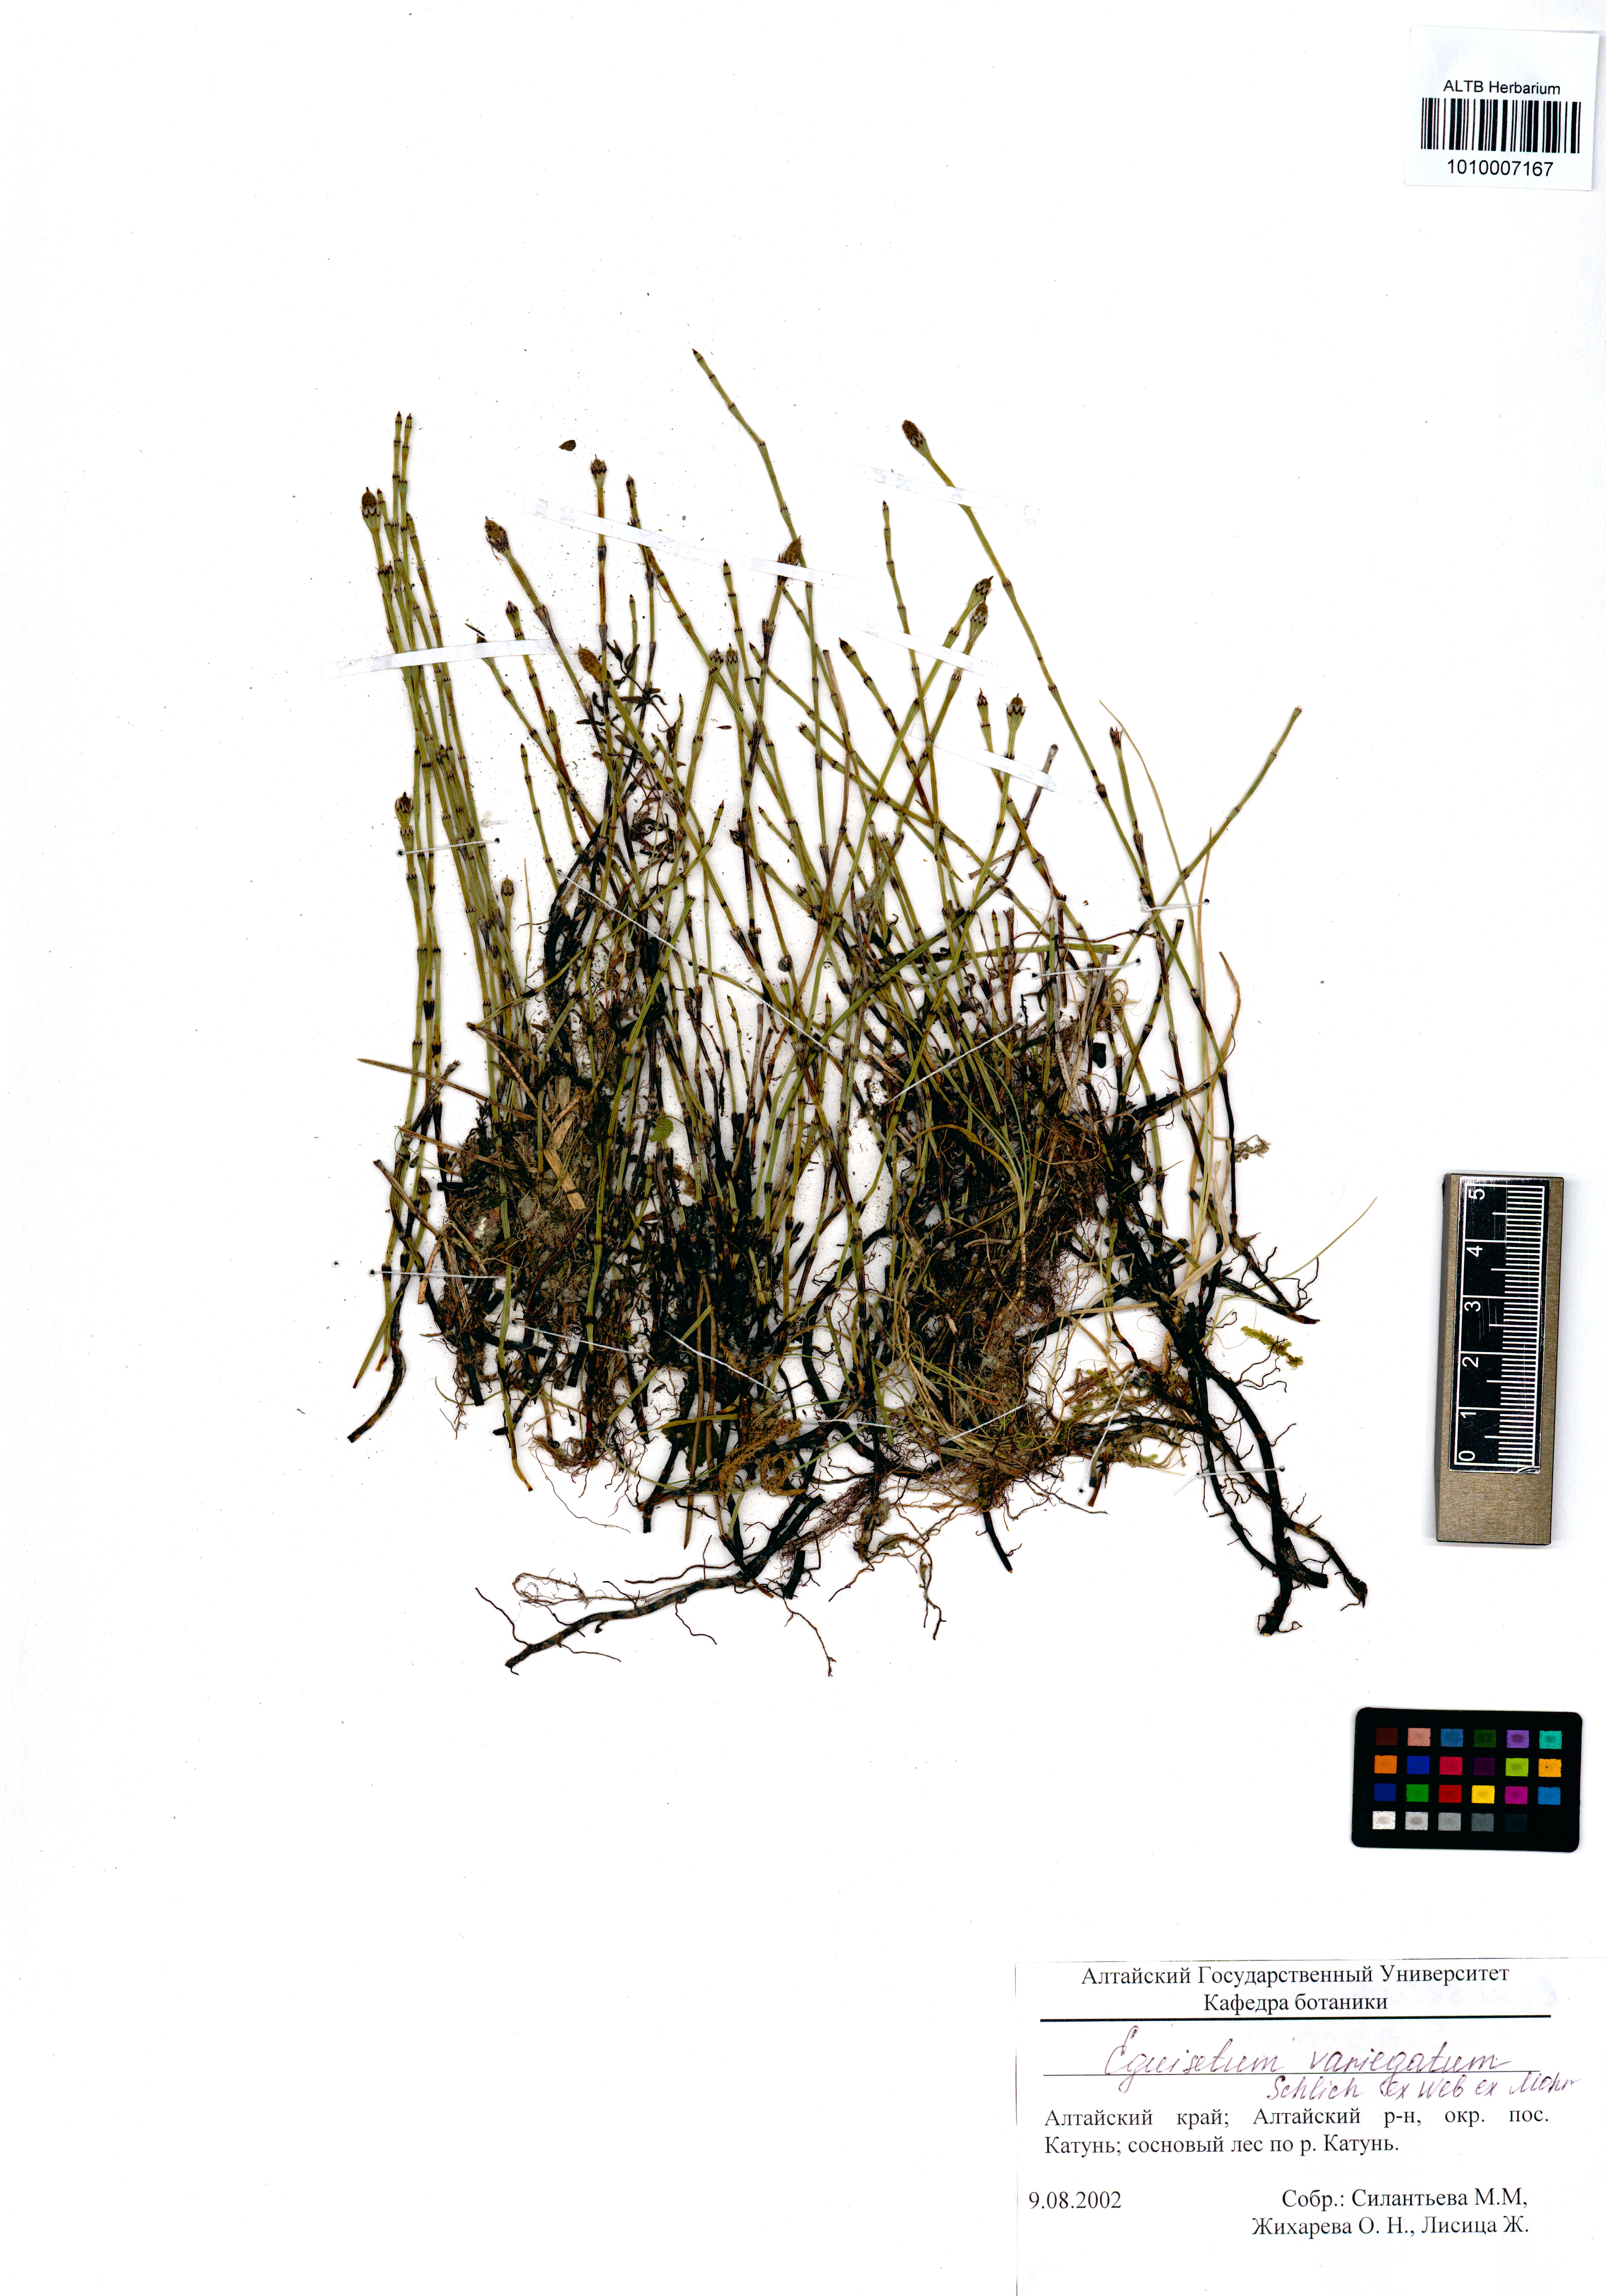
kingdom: Plantae
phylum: Tracheophyta
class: Polypodiopsida
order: Equisetales
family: Equisetaceae
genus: Equisetum
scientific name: Equisetum variegatum
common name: Variegated horsetail
